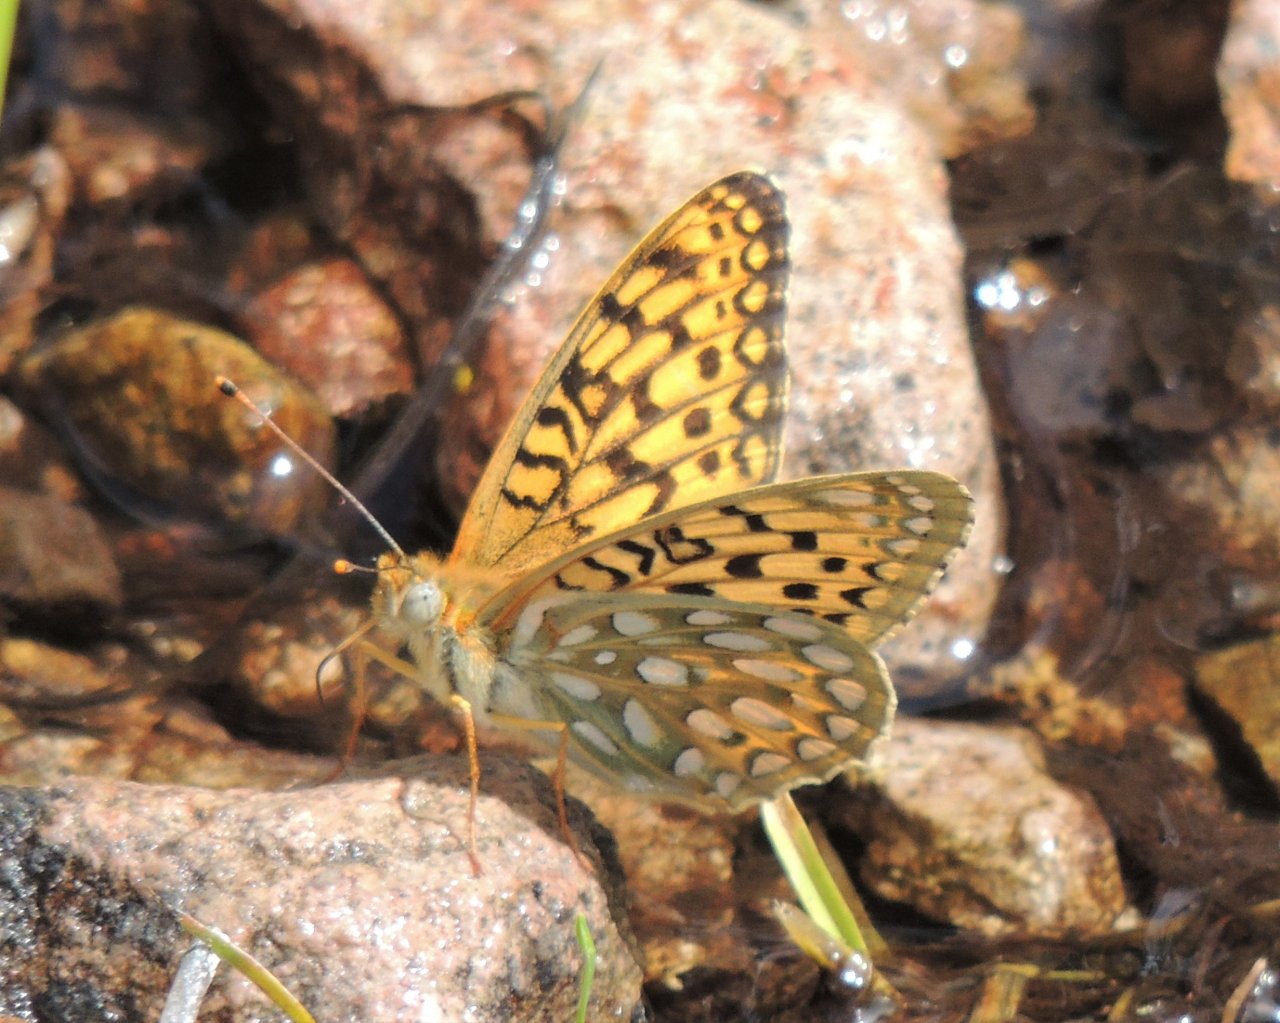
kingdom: Animalia
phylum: Arthropoda
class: Insecta
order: Lepidoptera
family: Nymphalidae
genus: Speyeria
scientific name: Speyeria callippe
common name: Callippe Fritillary
